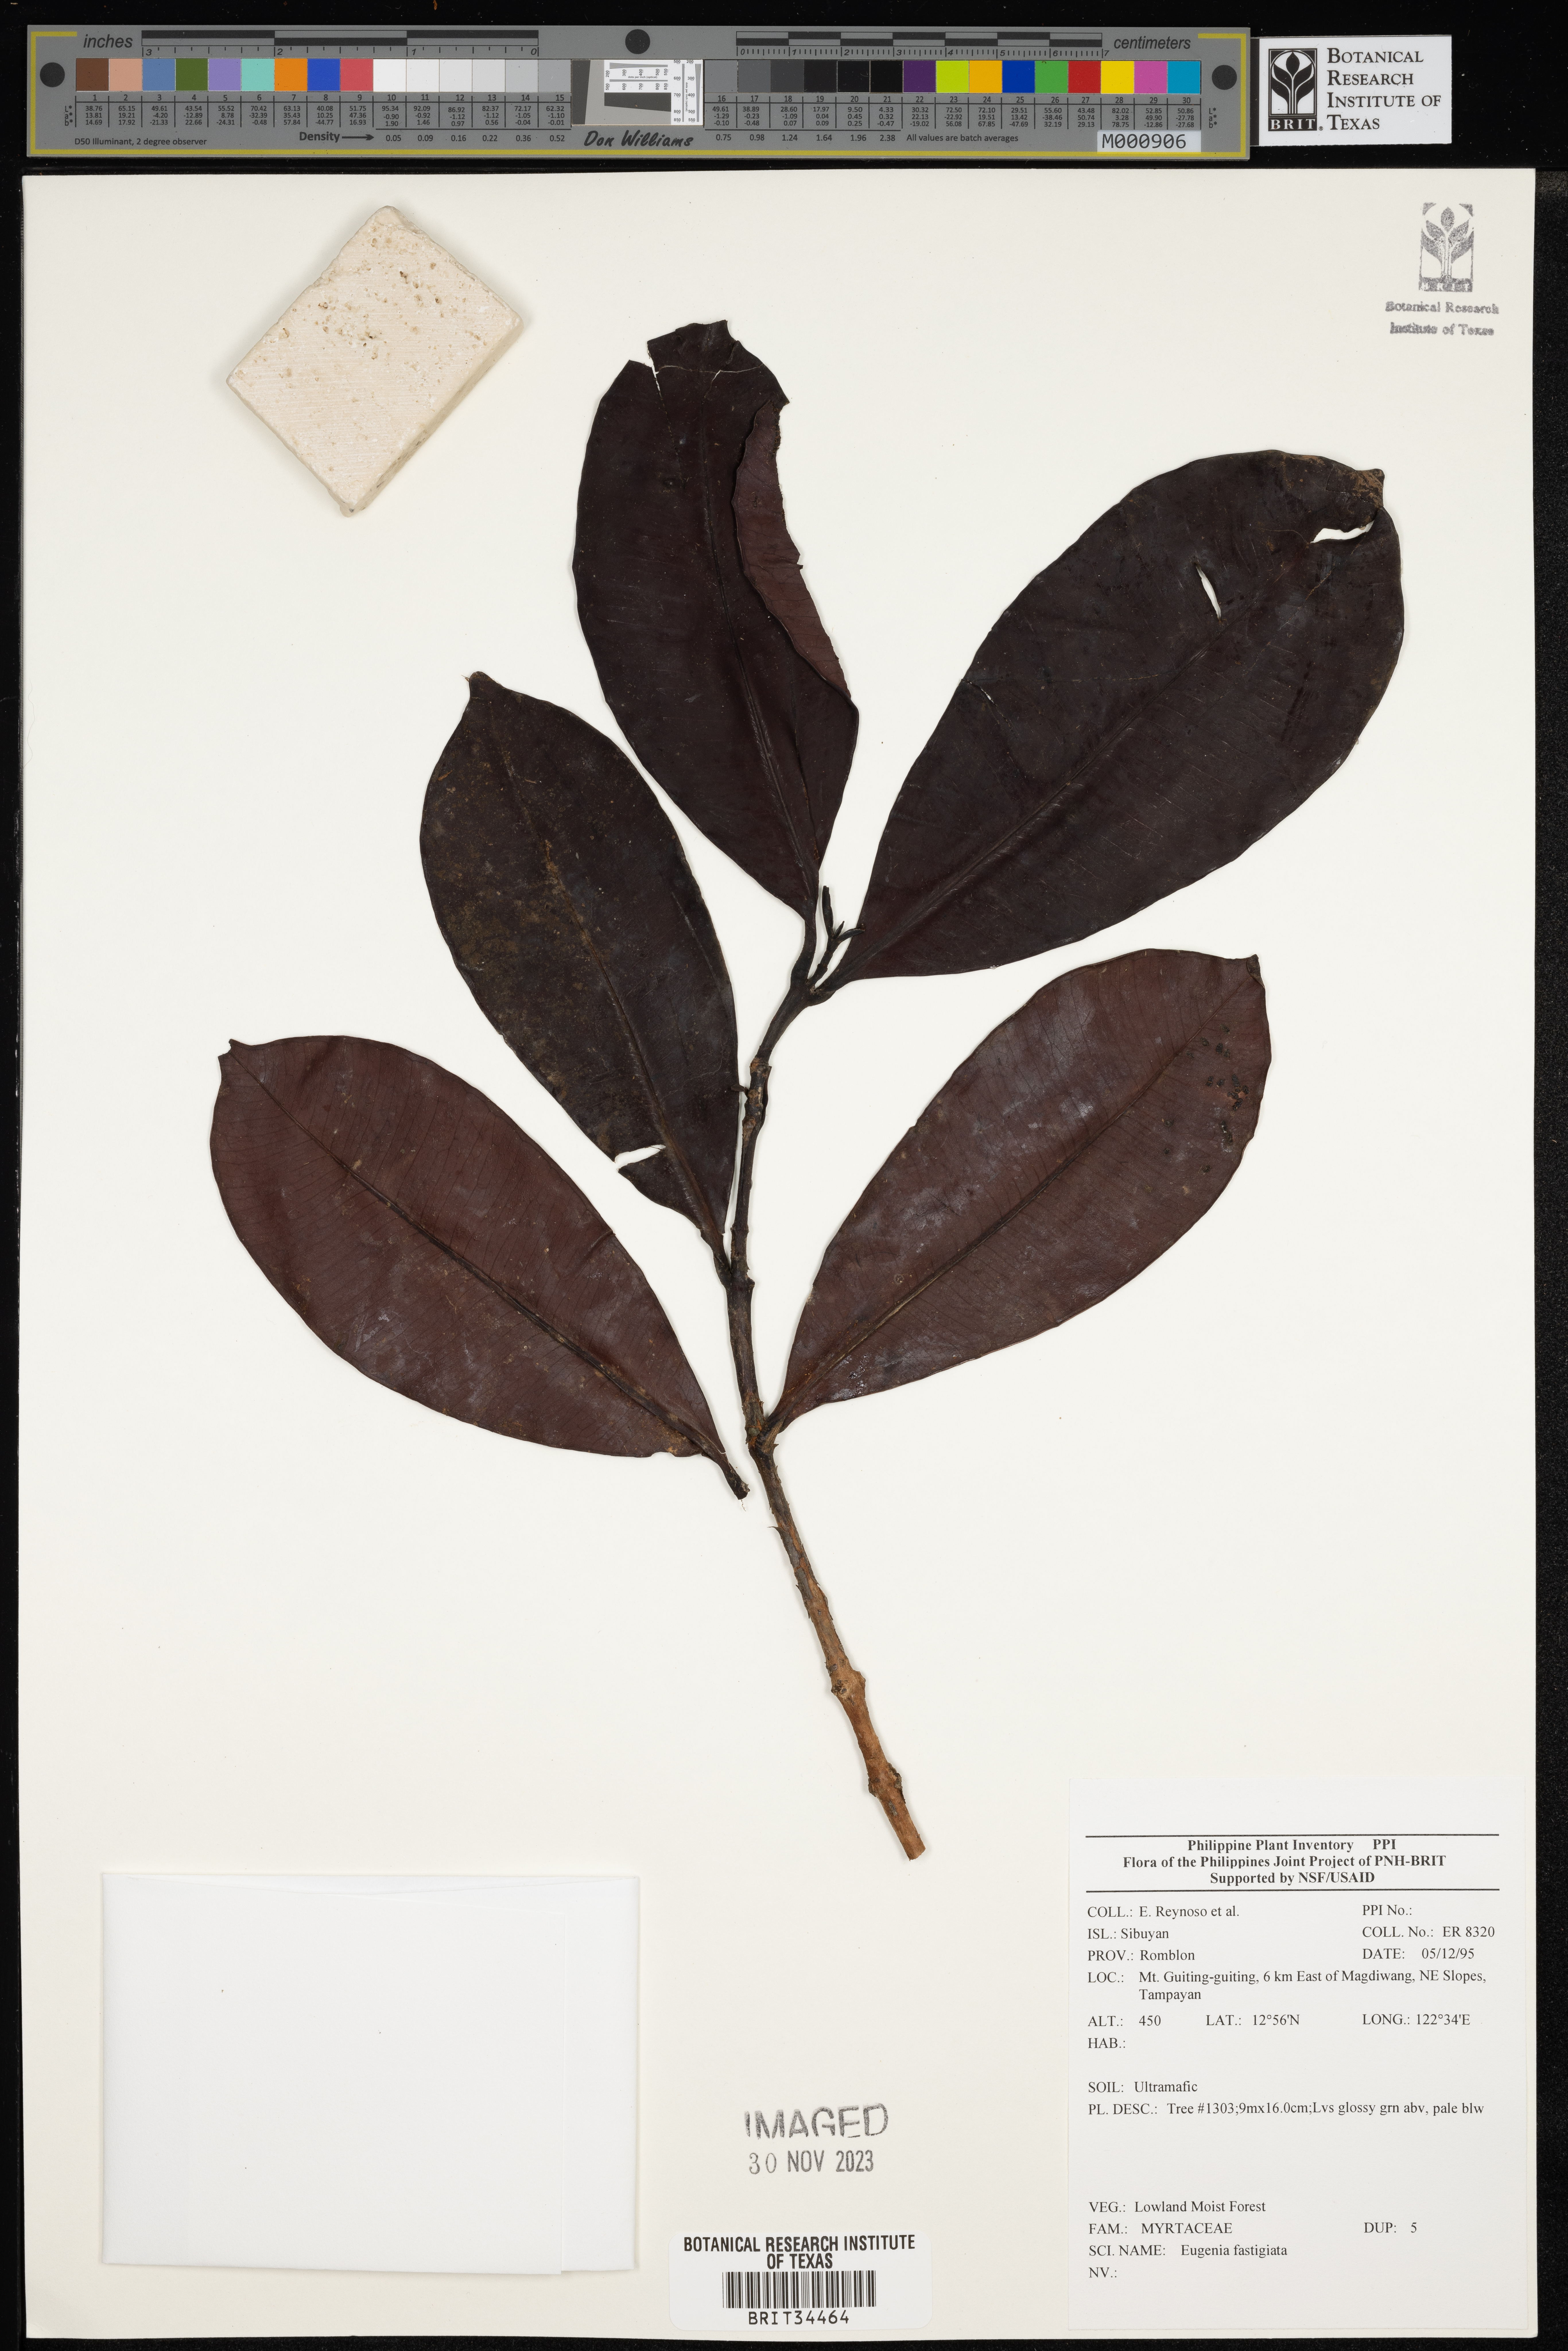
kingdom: Plantae
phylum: Tracheophyta
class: Magnoliopsida
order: Myrtales
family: Myrtaceae
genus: Eugenia
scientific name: Eugenia
